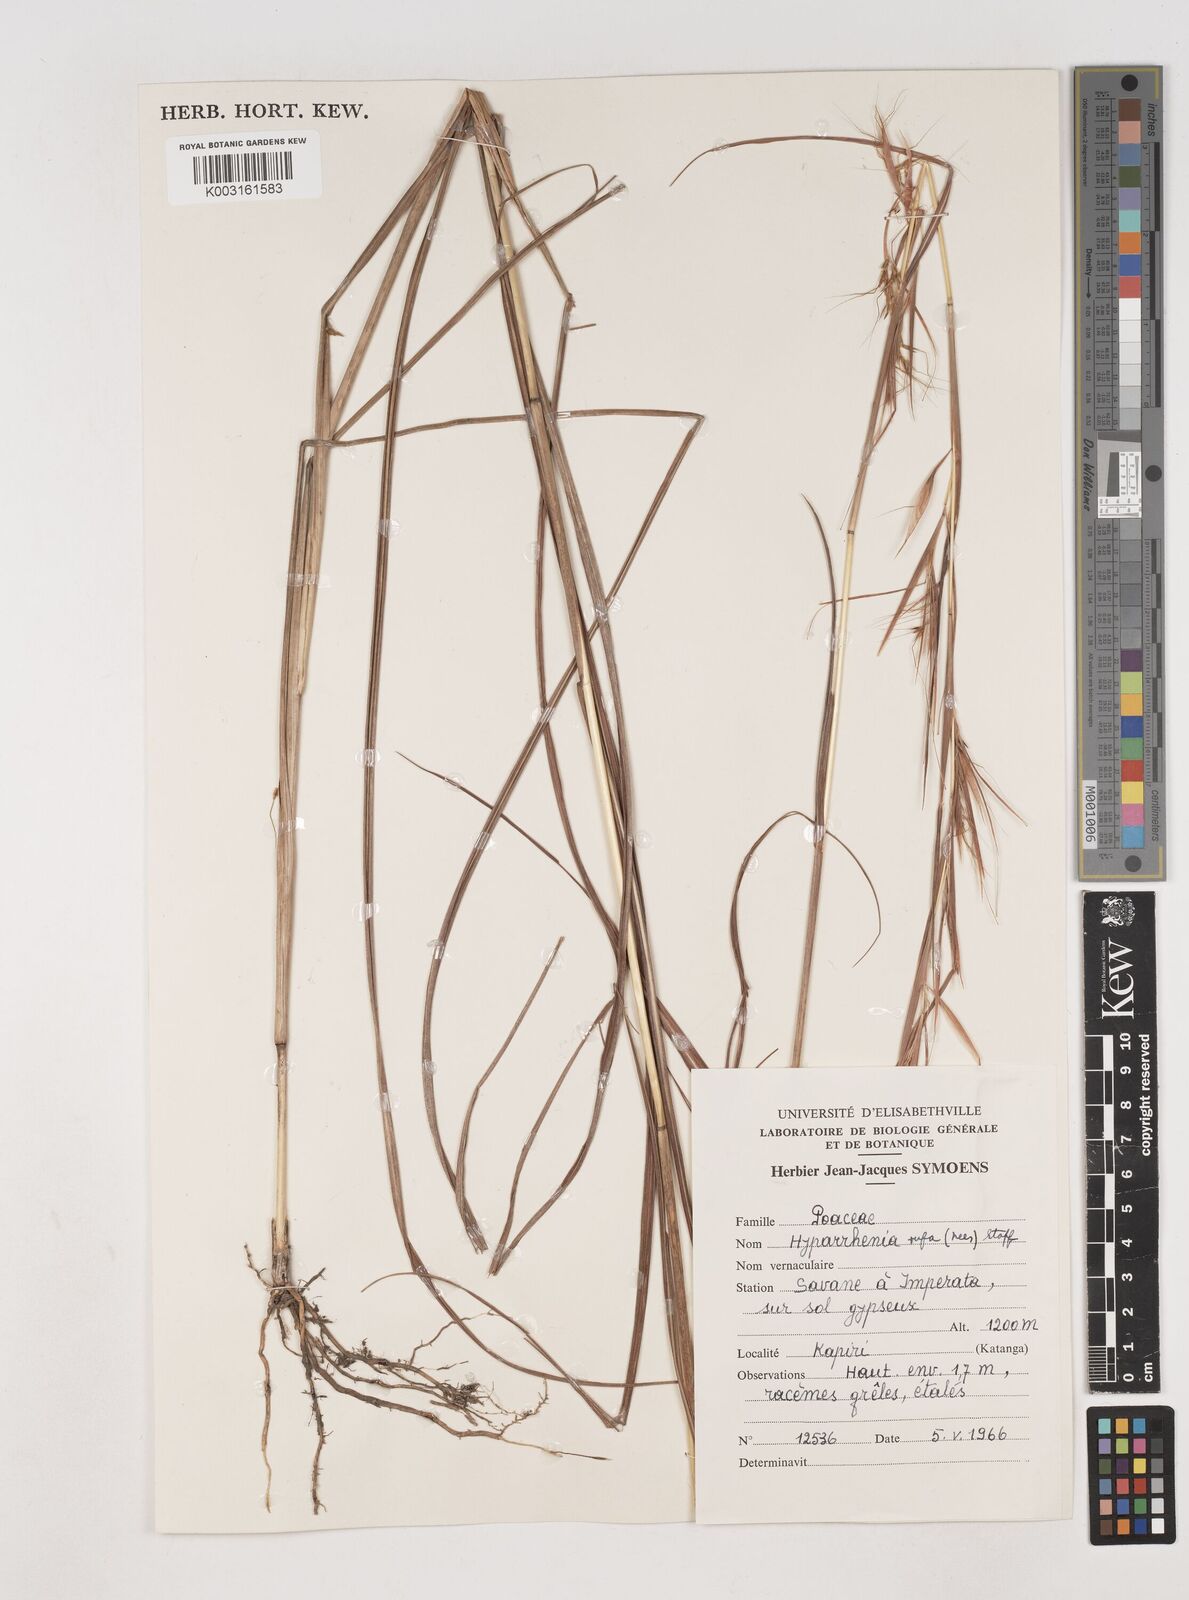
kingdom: Plantae
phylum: Tracheophyta
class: Liliopsida
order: Poales
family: Poaceae
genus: Hyparrhenia
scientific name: Hyparrhenia rufa
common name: Jaraguagrass
